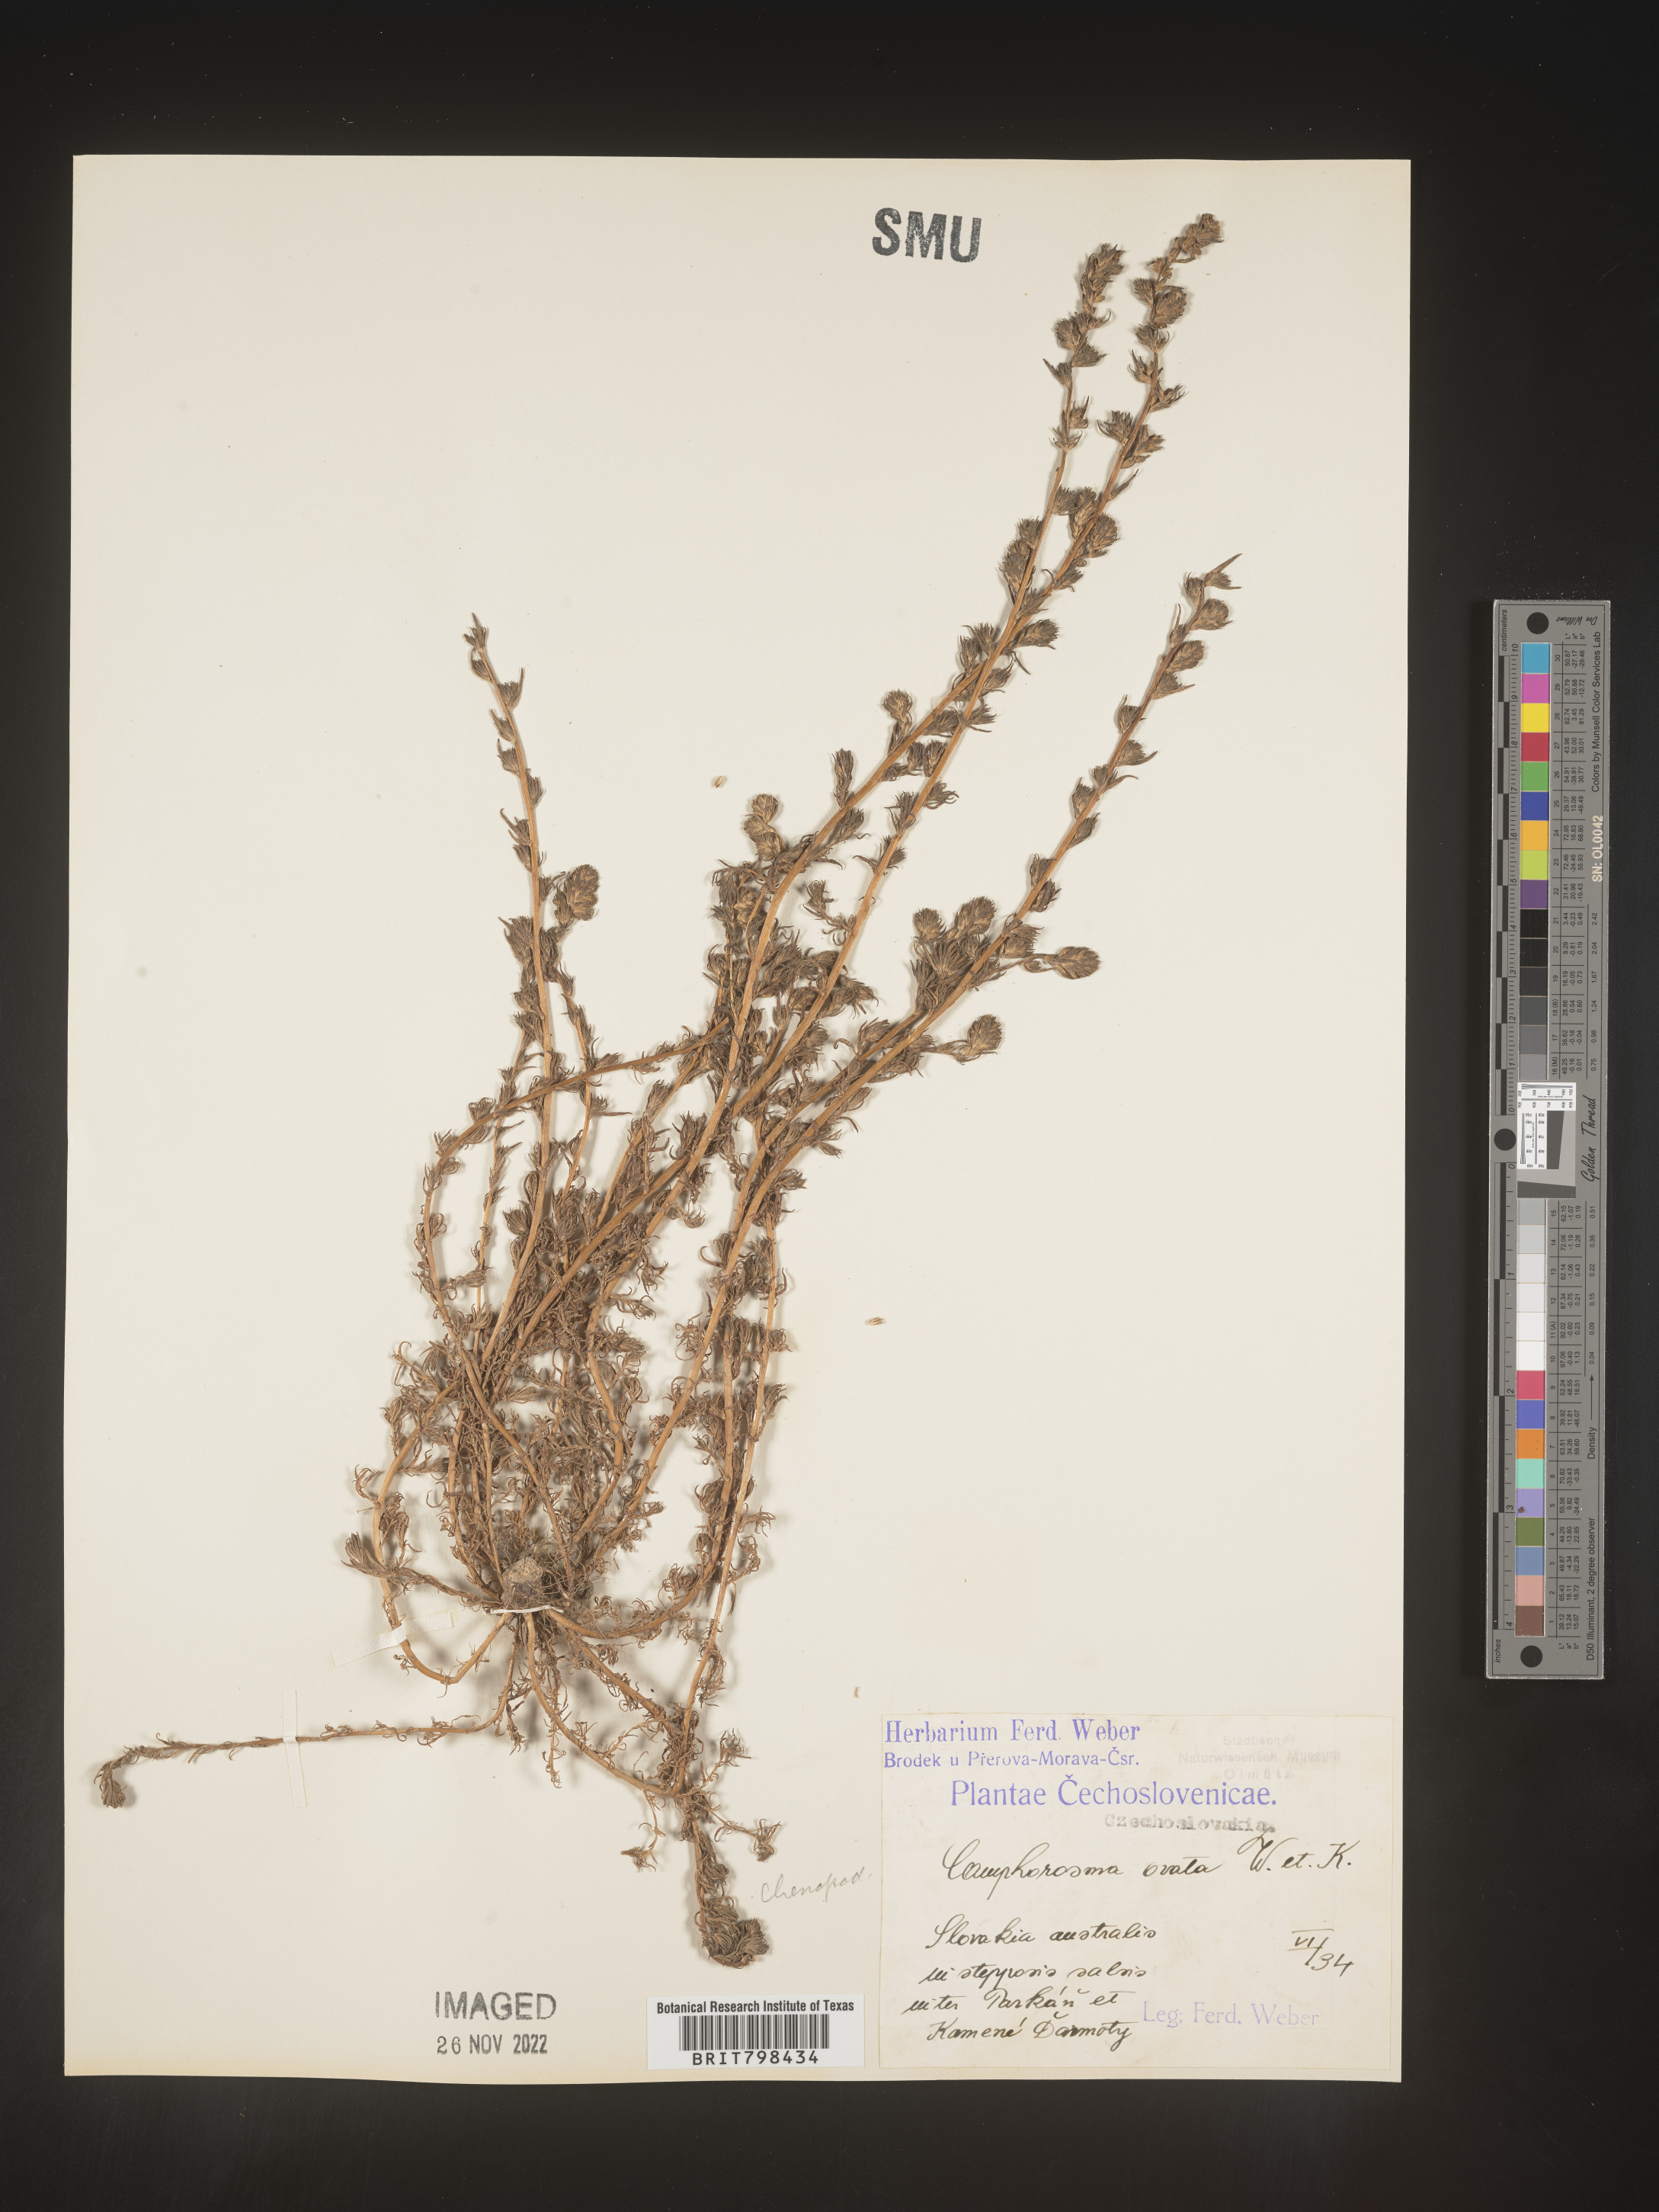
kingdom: Plantae
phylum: Tracheophyta
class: Magnoliopsida
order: Caryophyllales
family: Amaranthaceae
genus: Camphorosma
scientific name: Camphorosma
